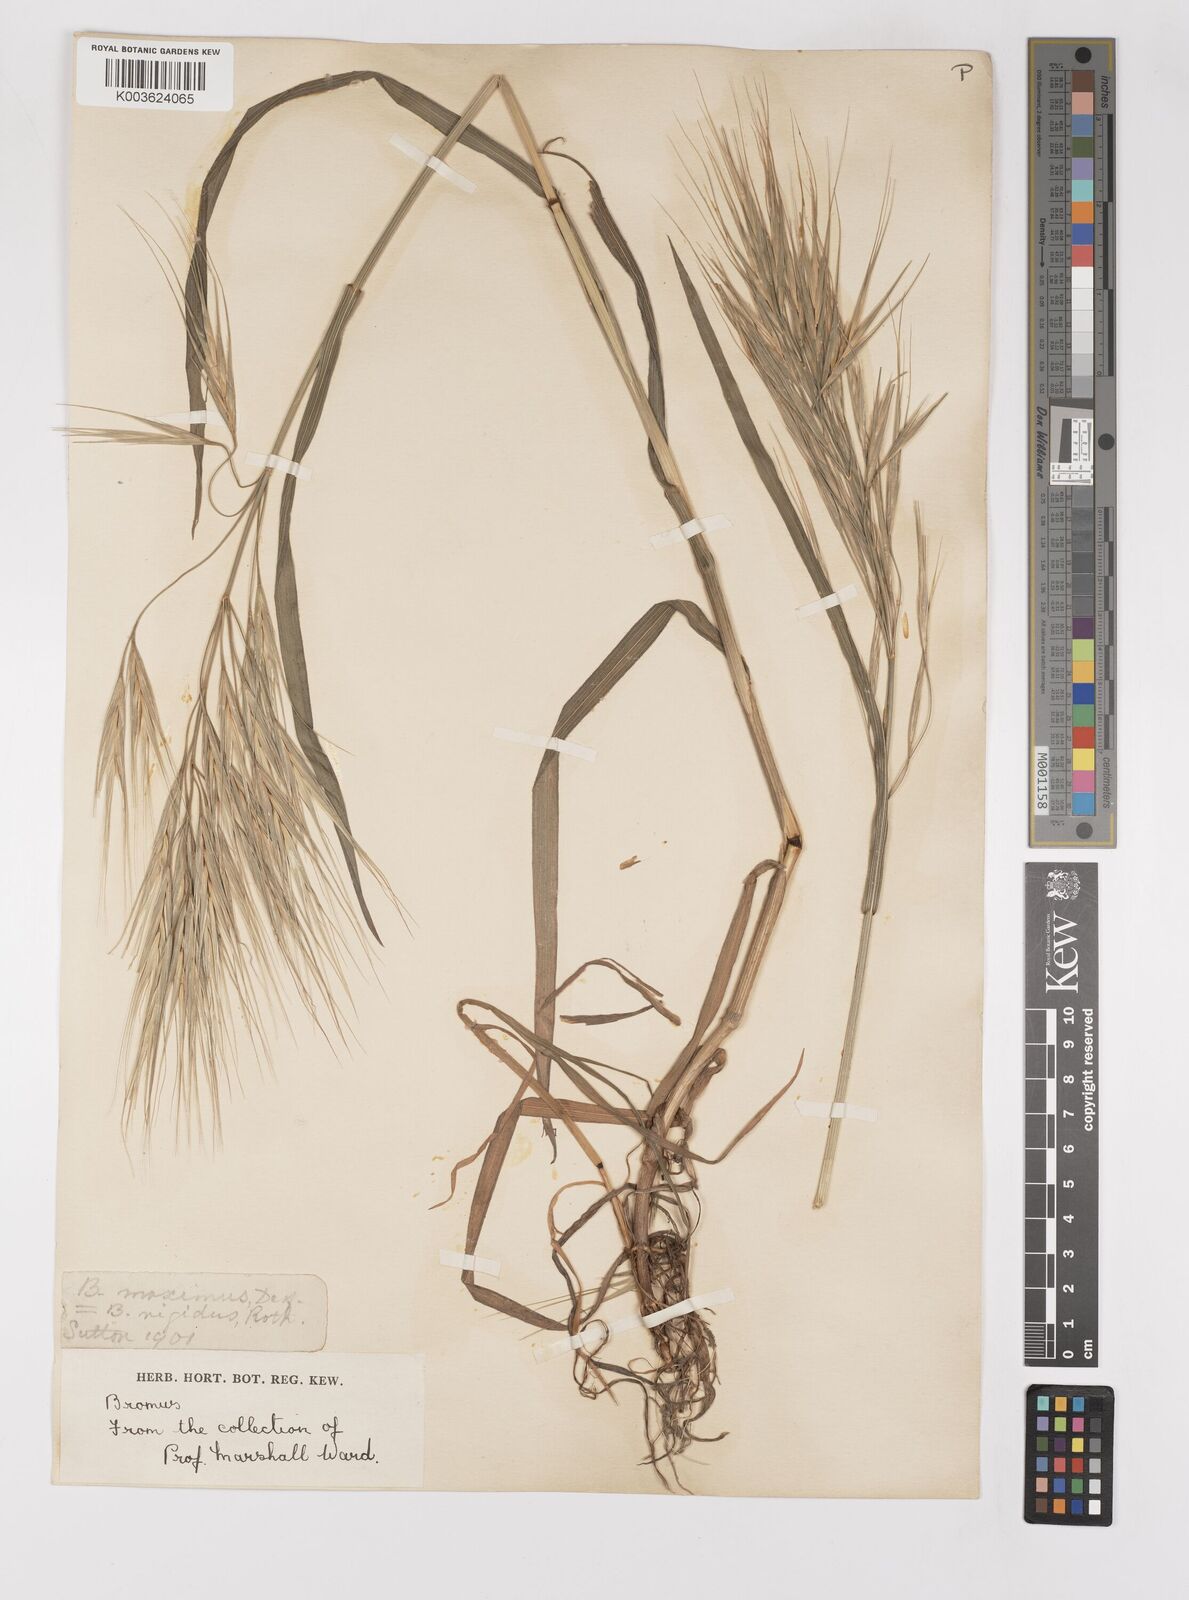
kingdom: Plantae
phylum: Tracheophyta
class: Liliopsida
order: Poales
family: Poaceae
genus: Bromus
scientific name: Bromus diandrus
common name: Ripgut brome
